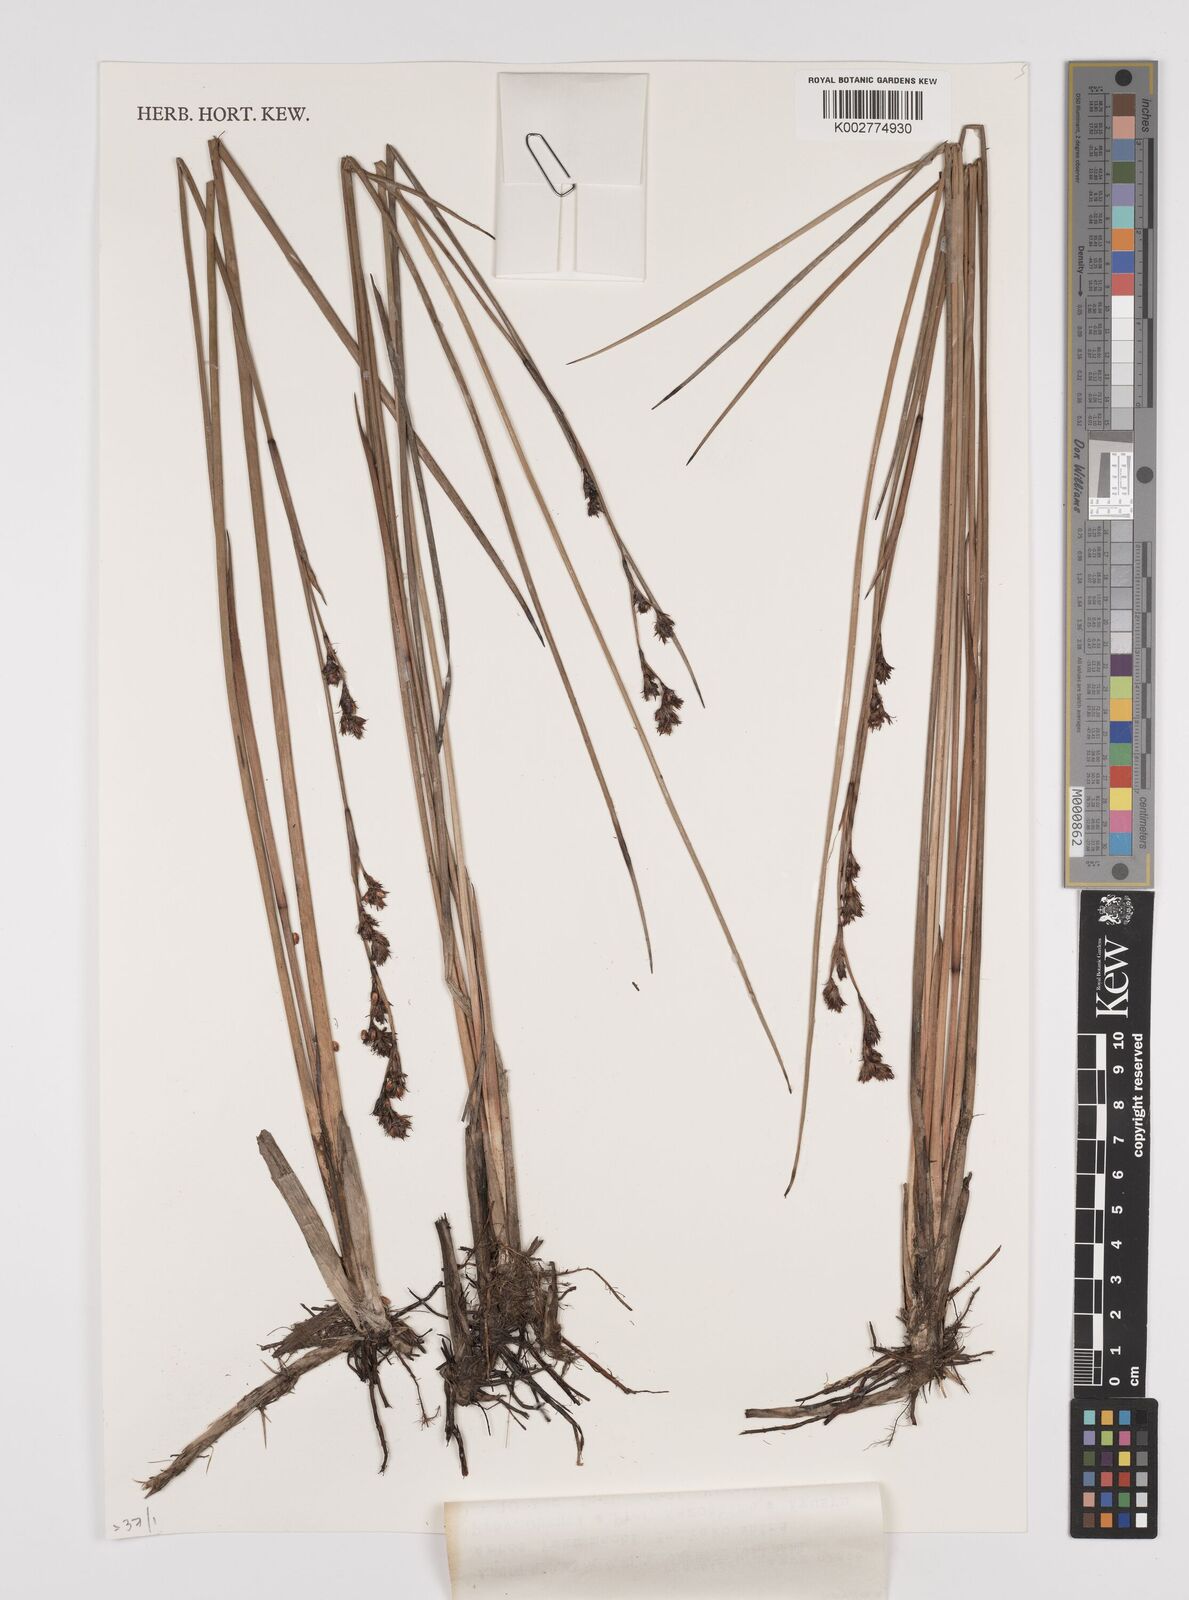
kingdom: Plantae
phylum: Tracheophyta
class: Liliopsida
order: Poales
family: Cyperaceae
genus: Machaerina
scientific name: Machaerina rubiginosa
